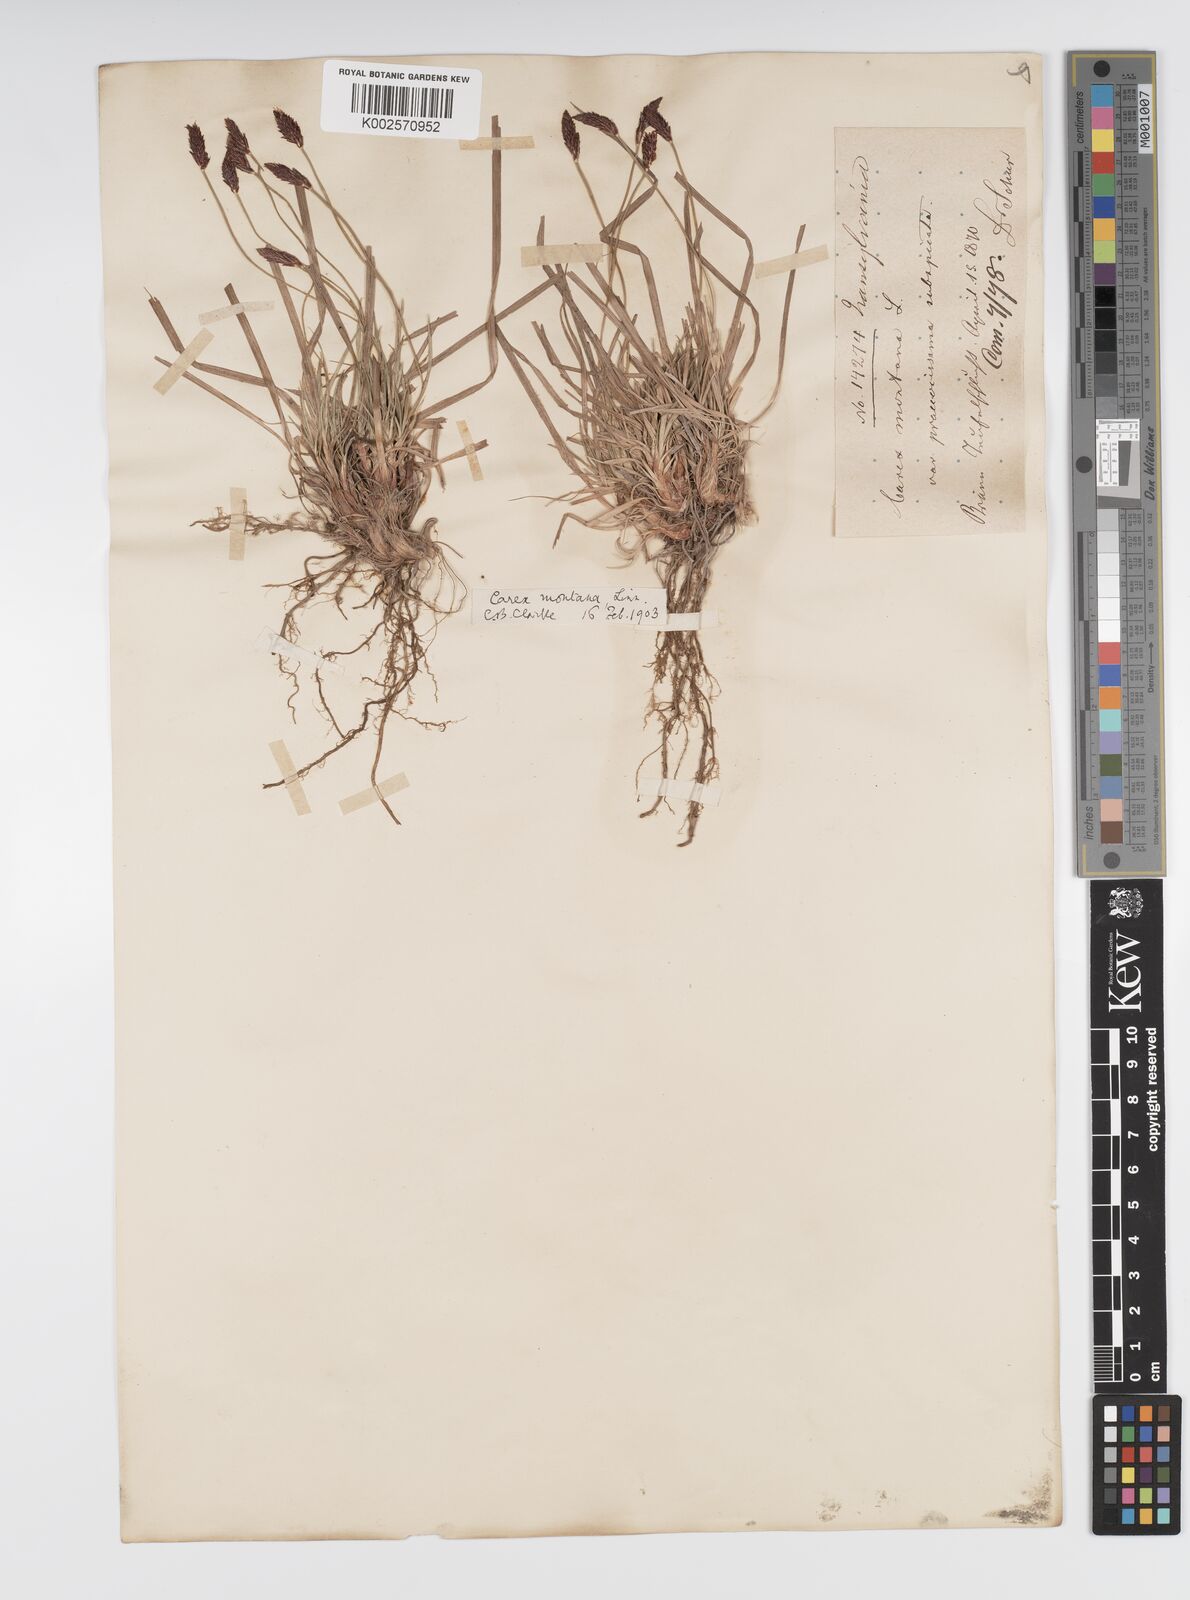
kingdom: Plantae
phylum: Tracheophyta
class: Liliopsida
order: Poales
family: Cyperaceae
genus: Carex
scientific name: Carex montana
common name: Soft-leaved sedge
